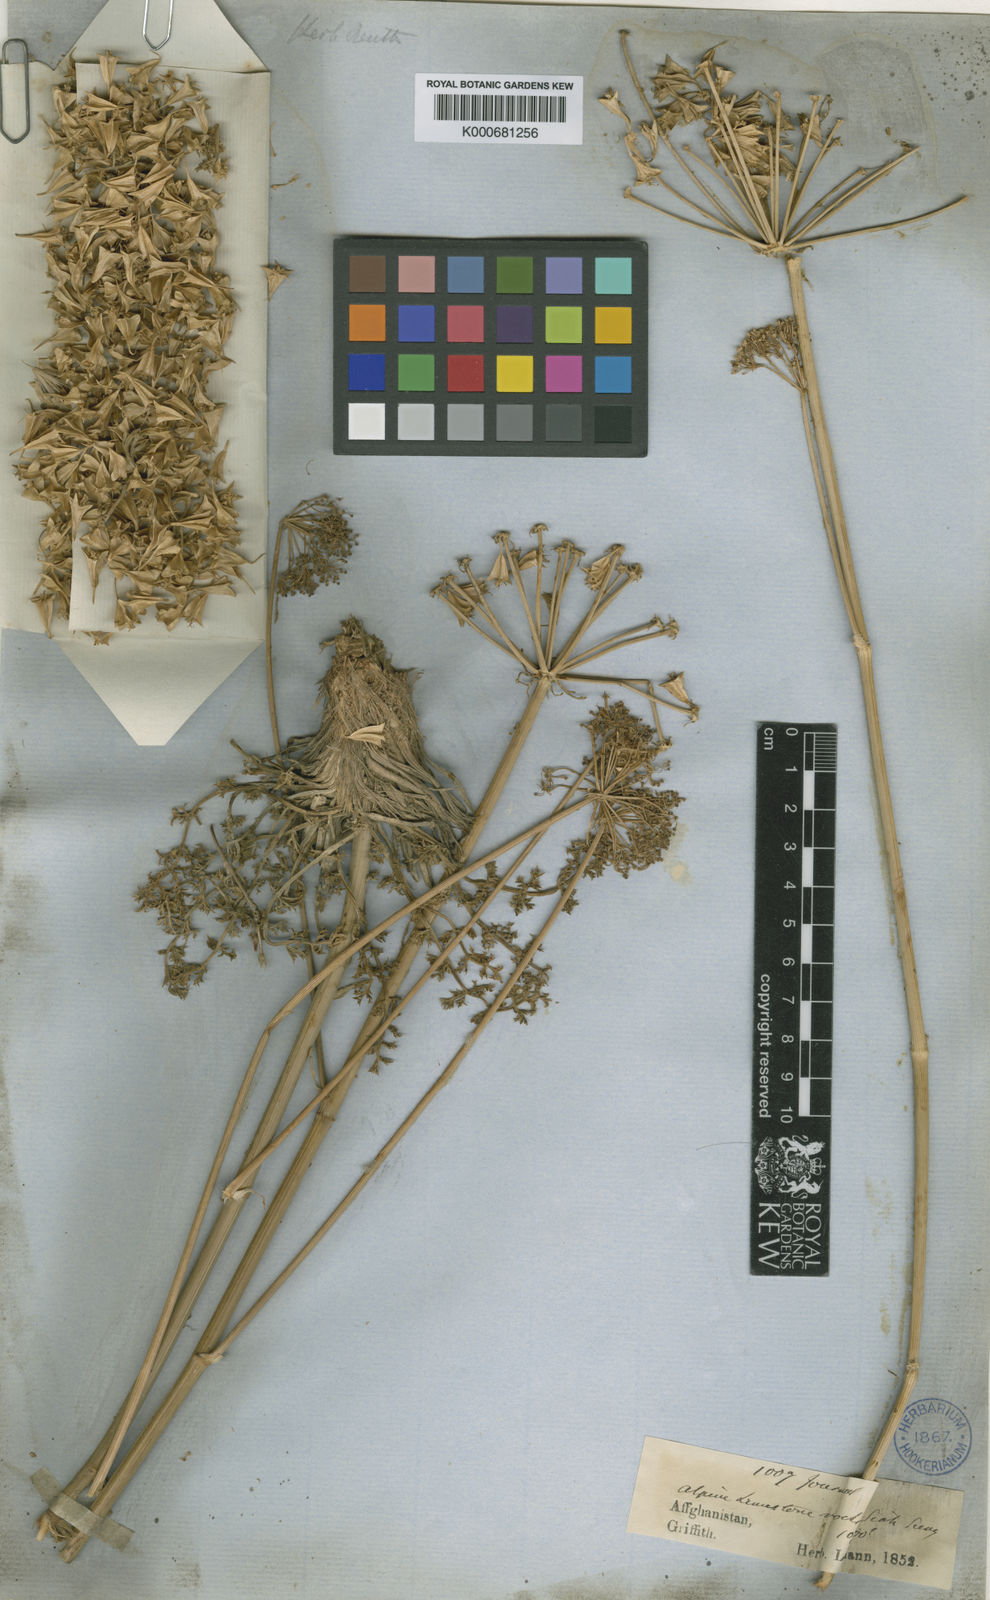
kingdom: Plantae
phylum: Tracheophyta
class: Magnoliopsida
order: Apiales
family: Apiaceae
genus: Pyramidoptera
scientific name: Pyramidoptera cabulica
